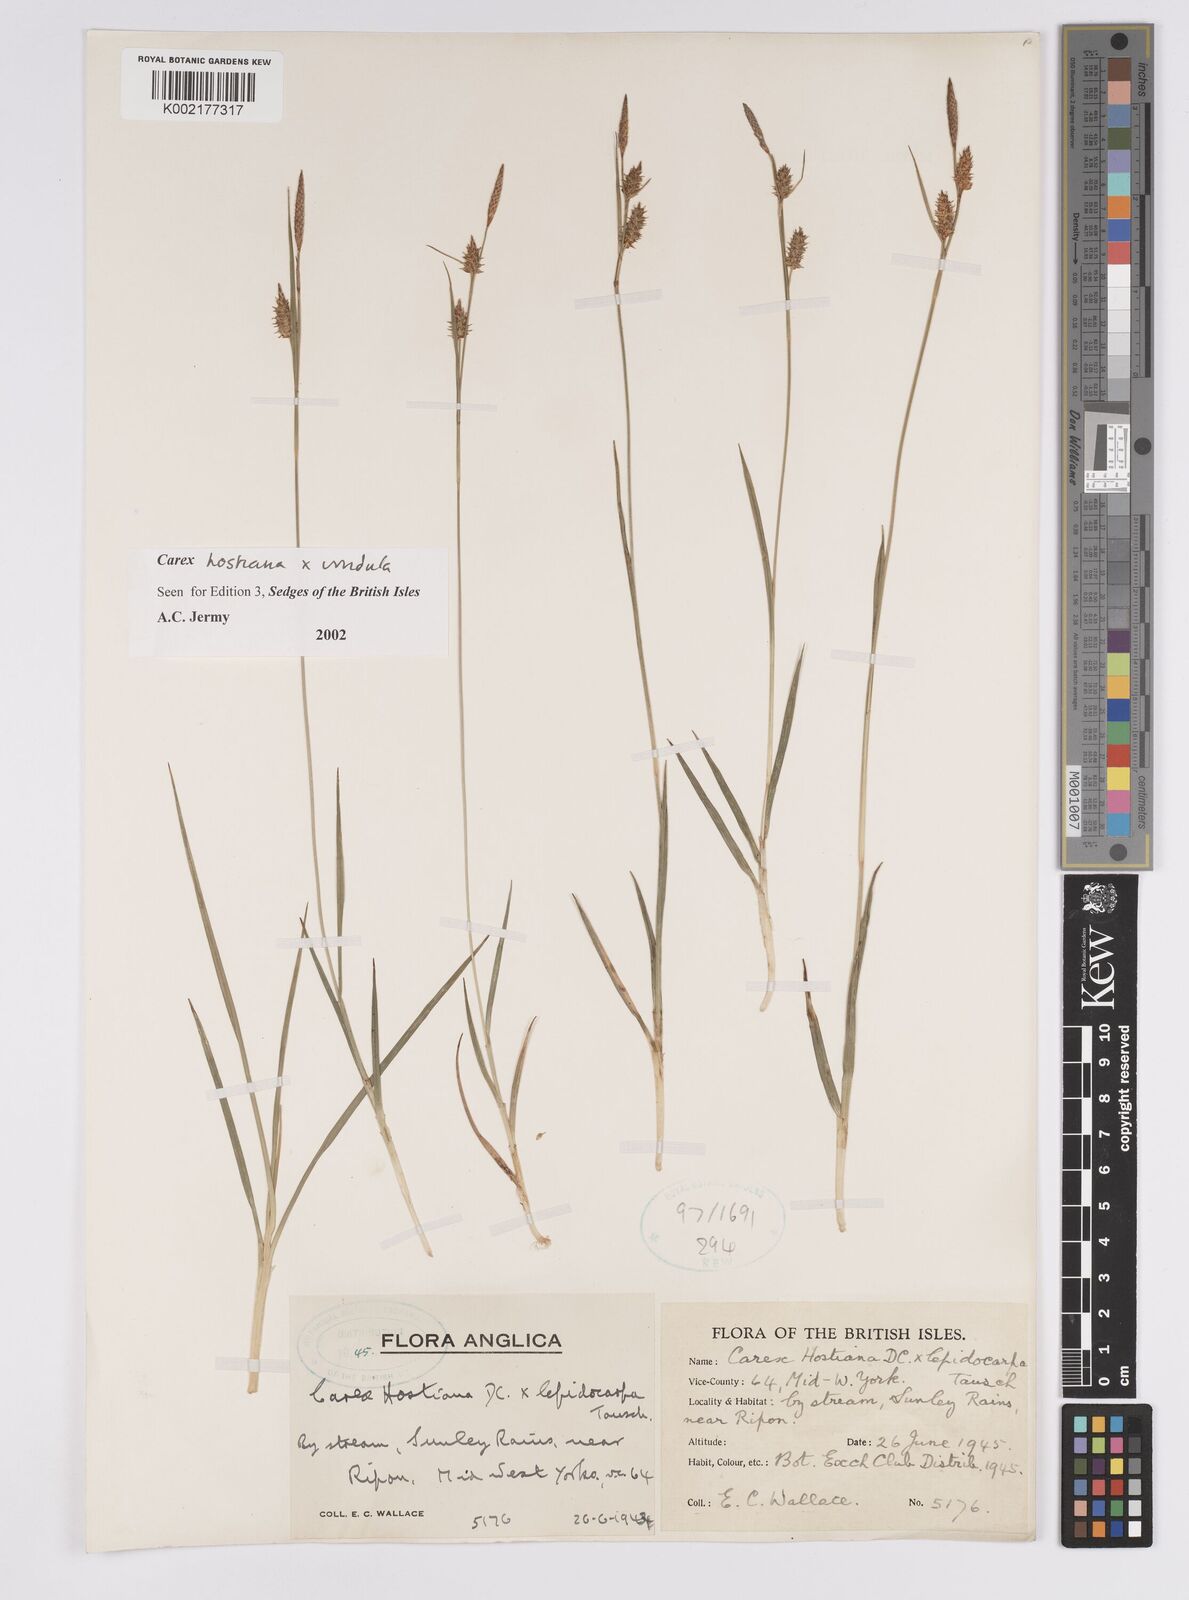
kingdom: Plantae
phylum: Tracheophyta
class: Liliopsida
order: Poales
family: Cyperaceae
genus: Carex
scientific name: Carex hostiana
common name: Tawny sedge
